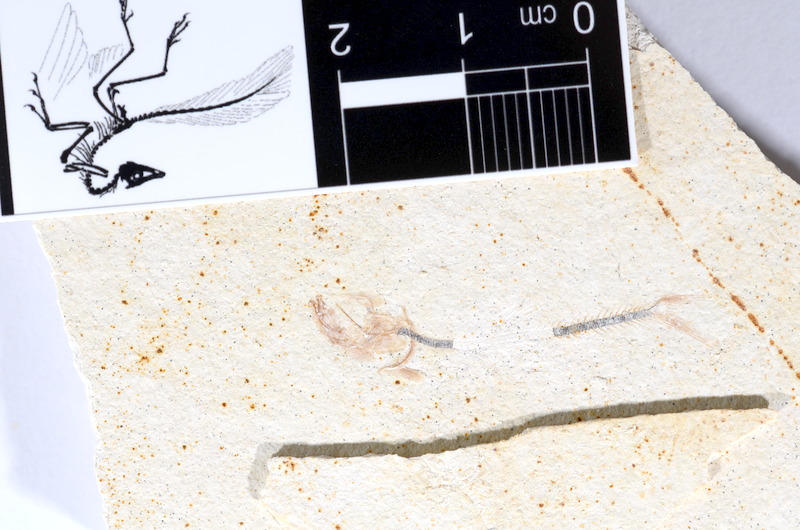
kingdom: Animalia
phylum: Chordata
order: Salmoniformes
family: Orthogonikleithridae
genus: Orthogonikleithrus
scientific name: Orthogonikleithrus hoelli
